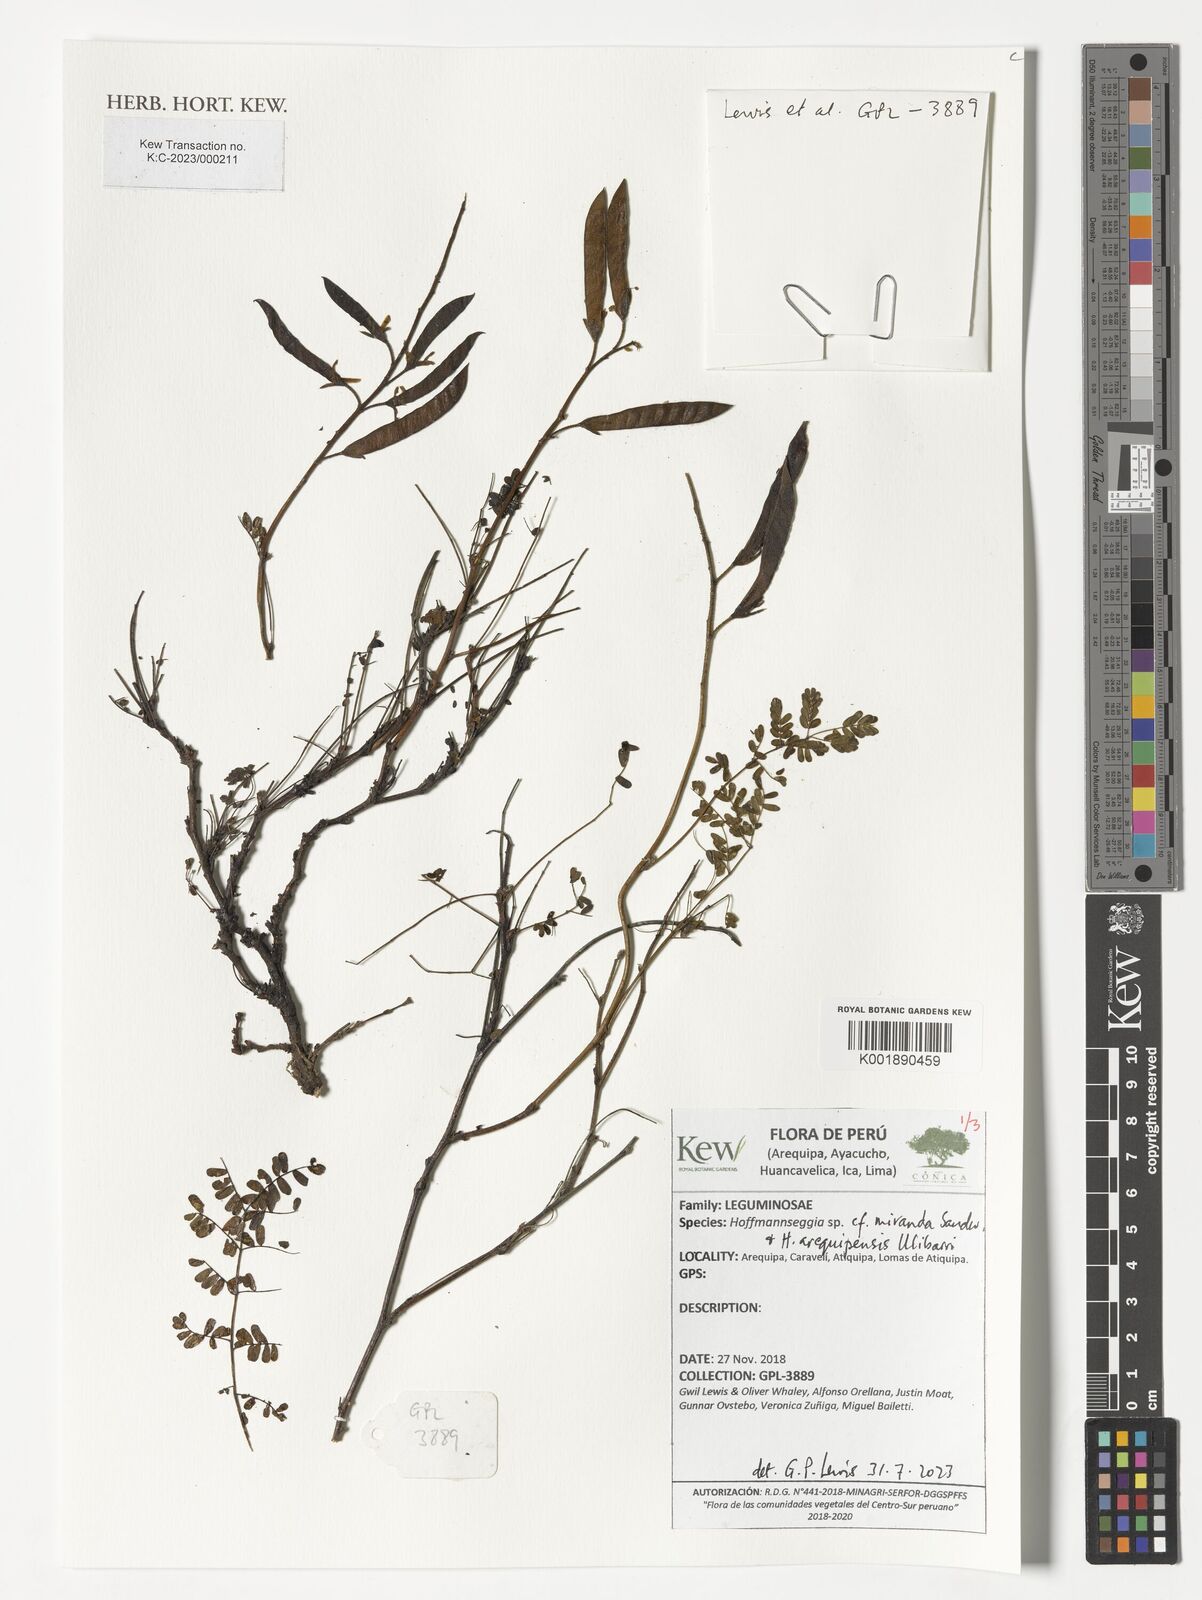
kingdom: Plantae
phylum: Tracheophyta
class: Magnoliopsida
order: Fabales
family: Fabaceae
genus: Hoffmannseggia
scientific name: Hoffmannseggia
